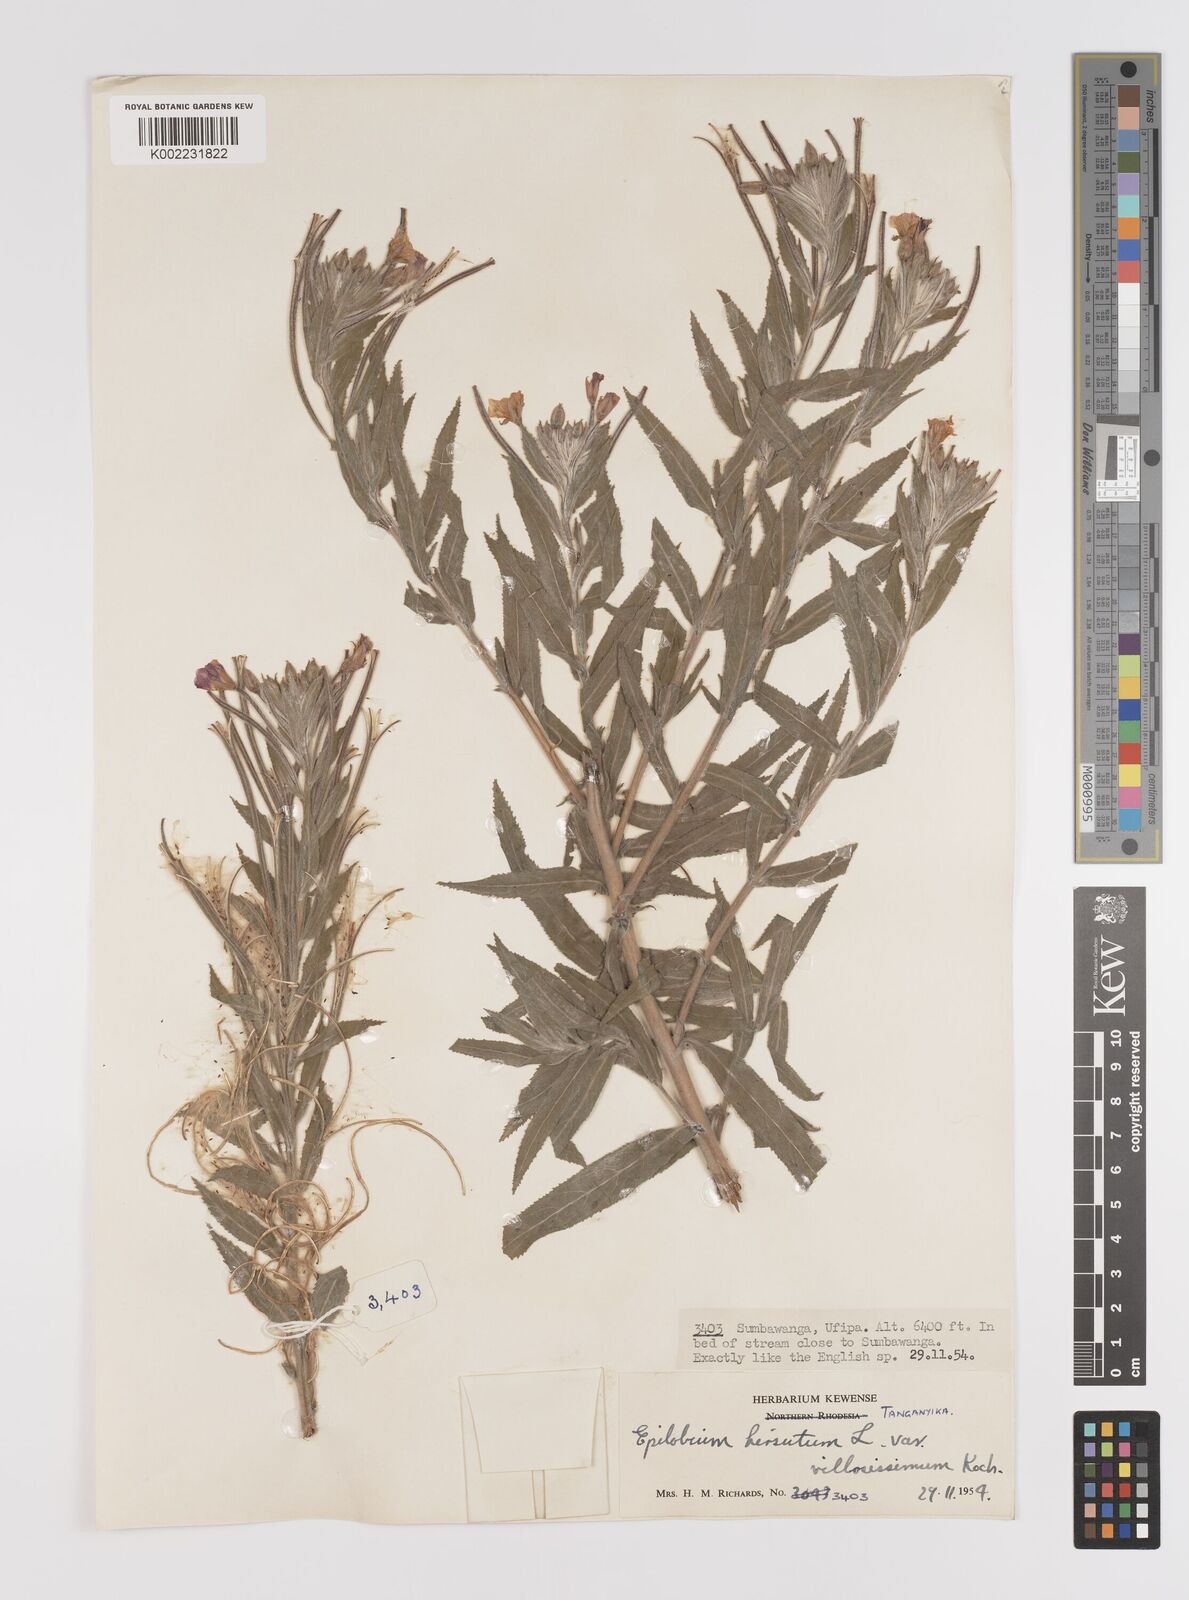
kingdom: Plantae
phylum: Tracheophyta
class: Magnoliopsida
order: Myrtales
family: Onagraceae
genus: Epilobium
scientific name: Epilobium hirsutum
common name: Great willowherb
